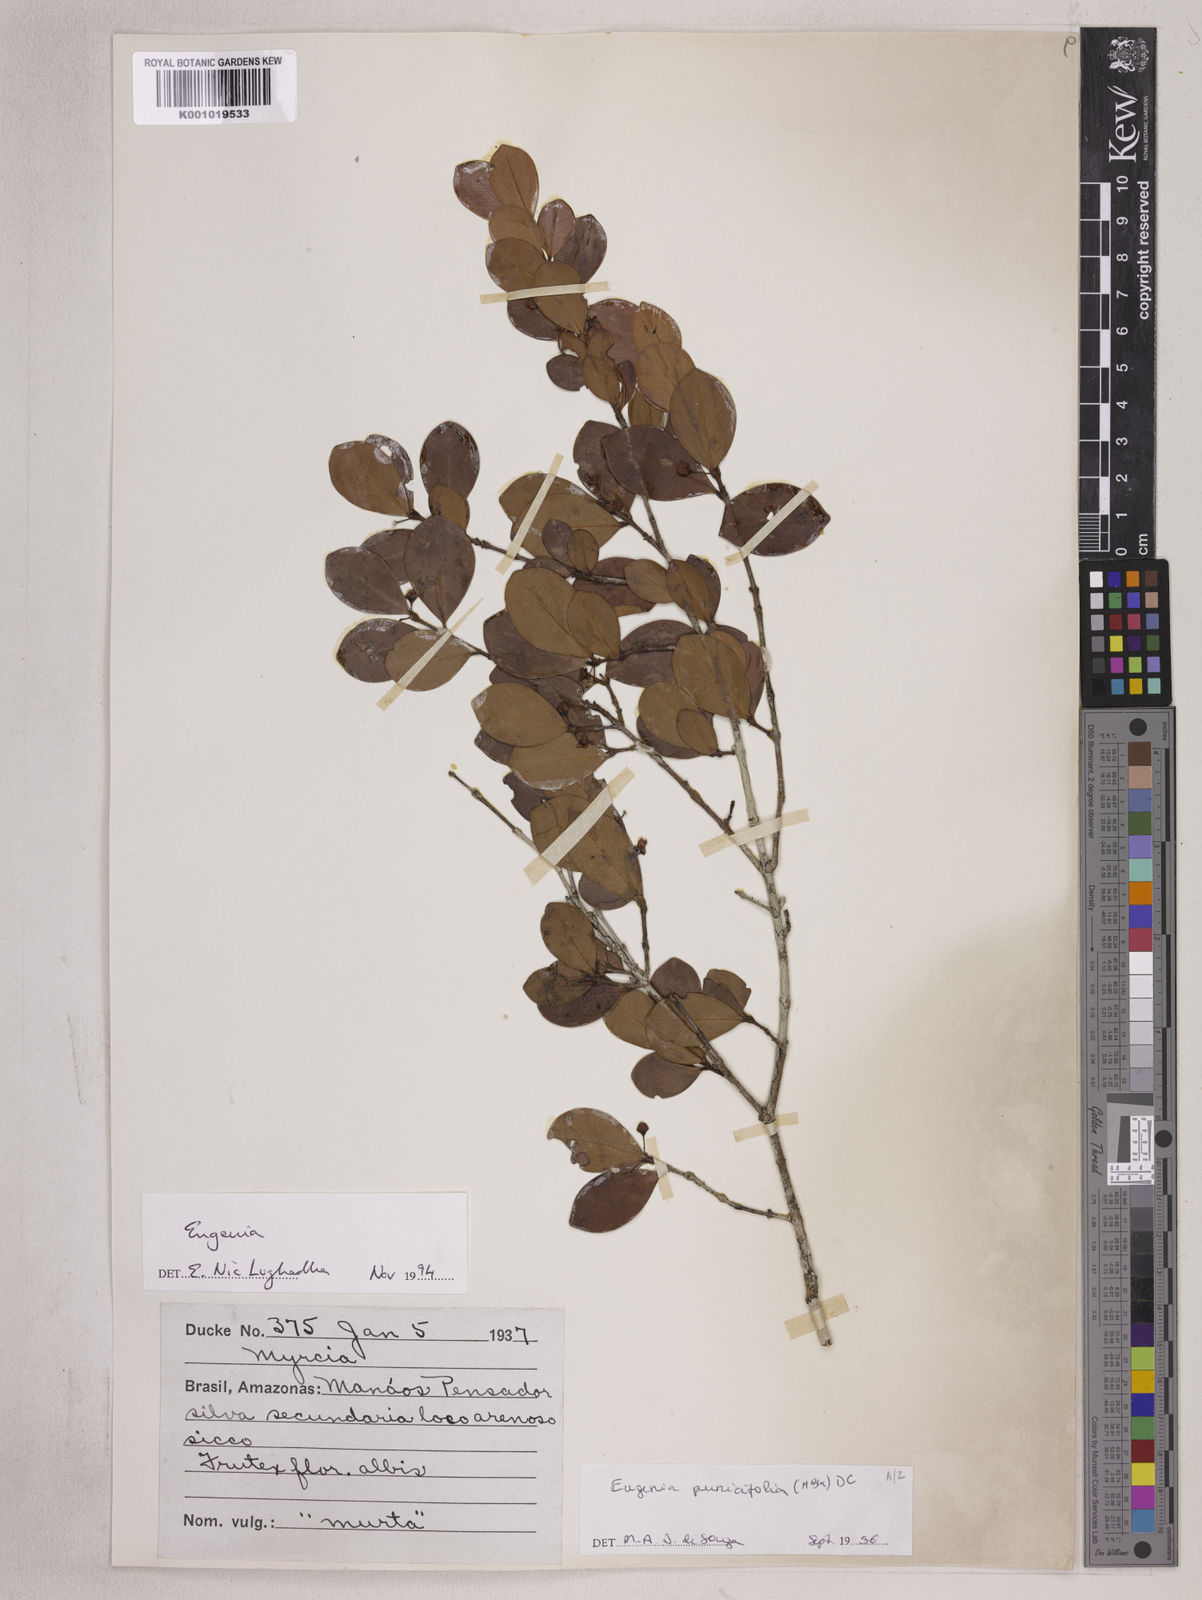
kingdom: Plantae
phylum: Tracheophyta
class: Magnoliopsida
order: Myrtales
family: Myrtaceae
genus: Eugenia
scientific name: Eugenia punicifolia
